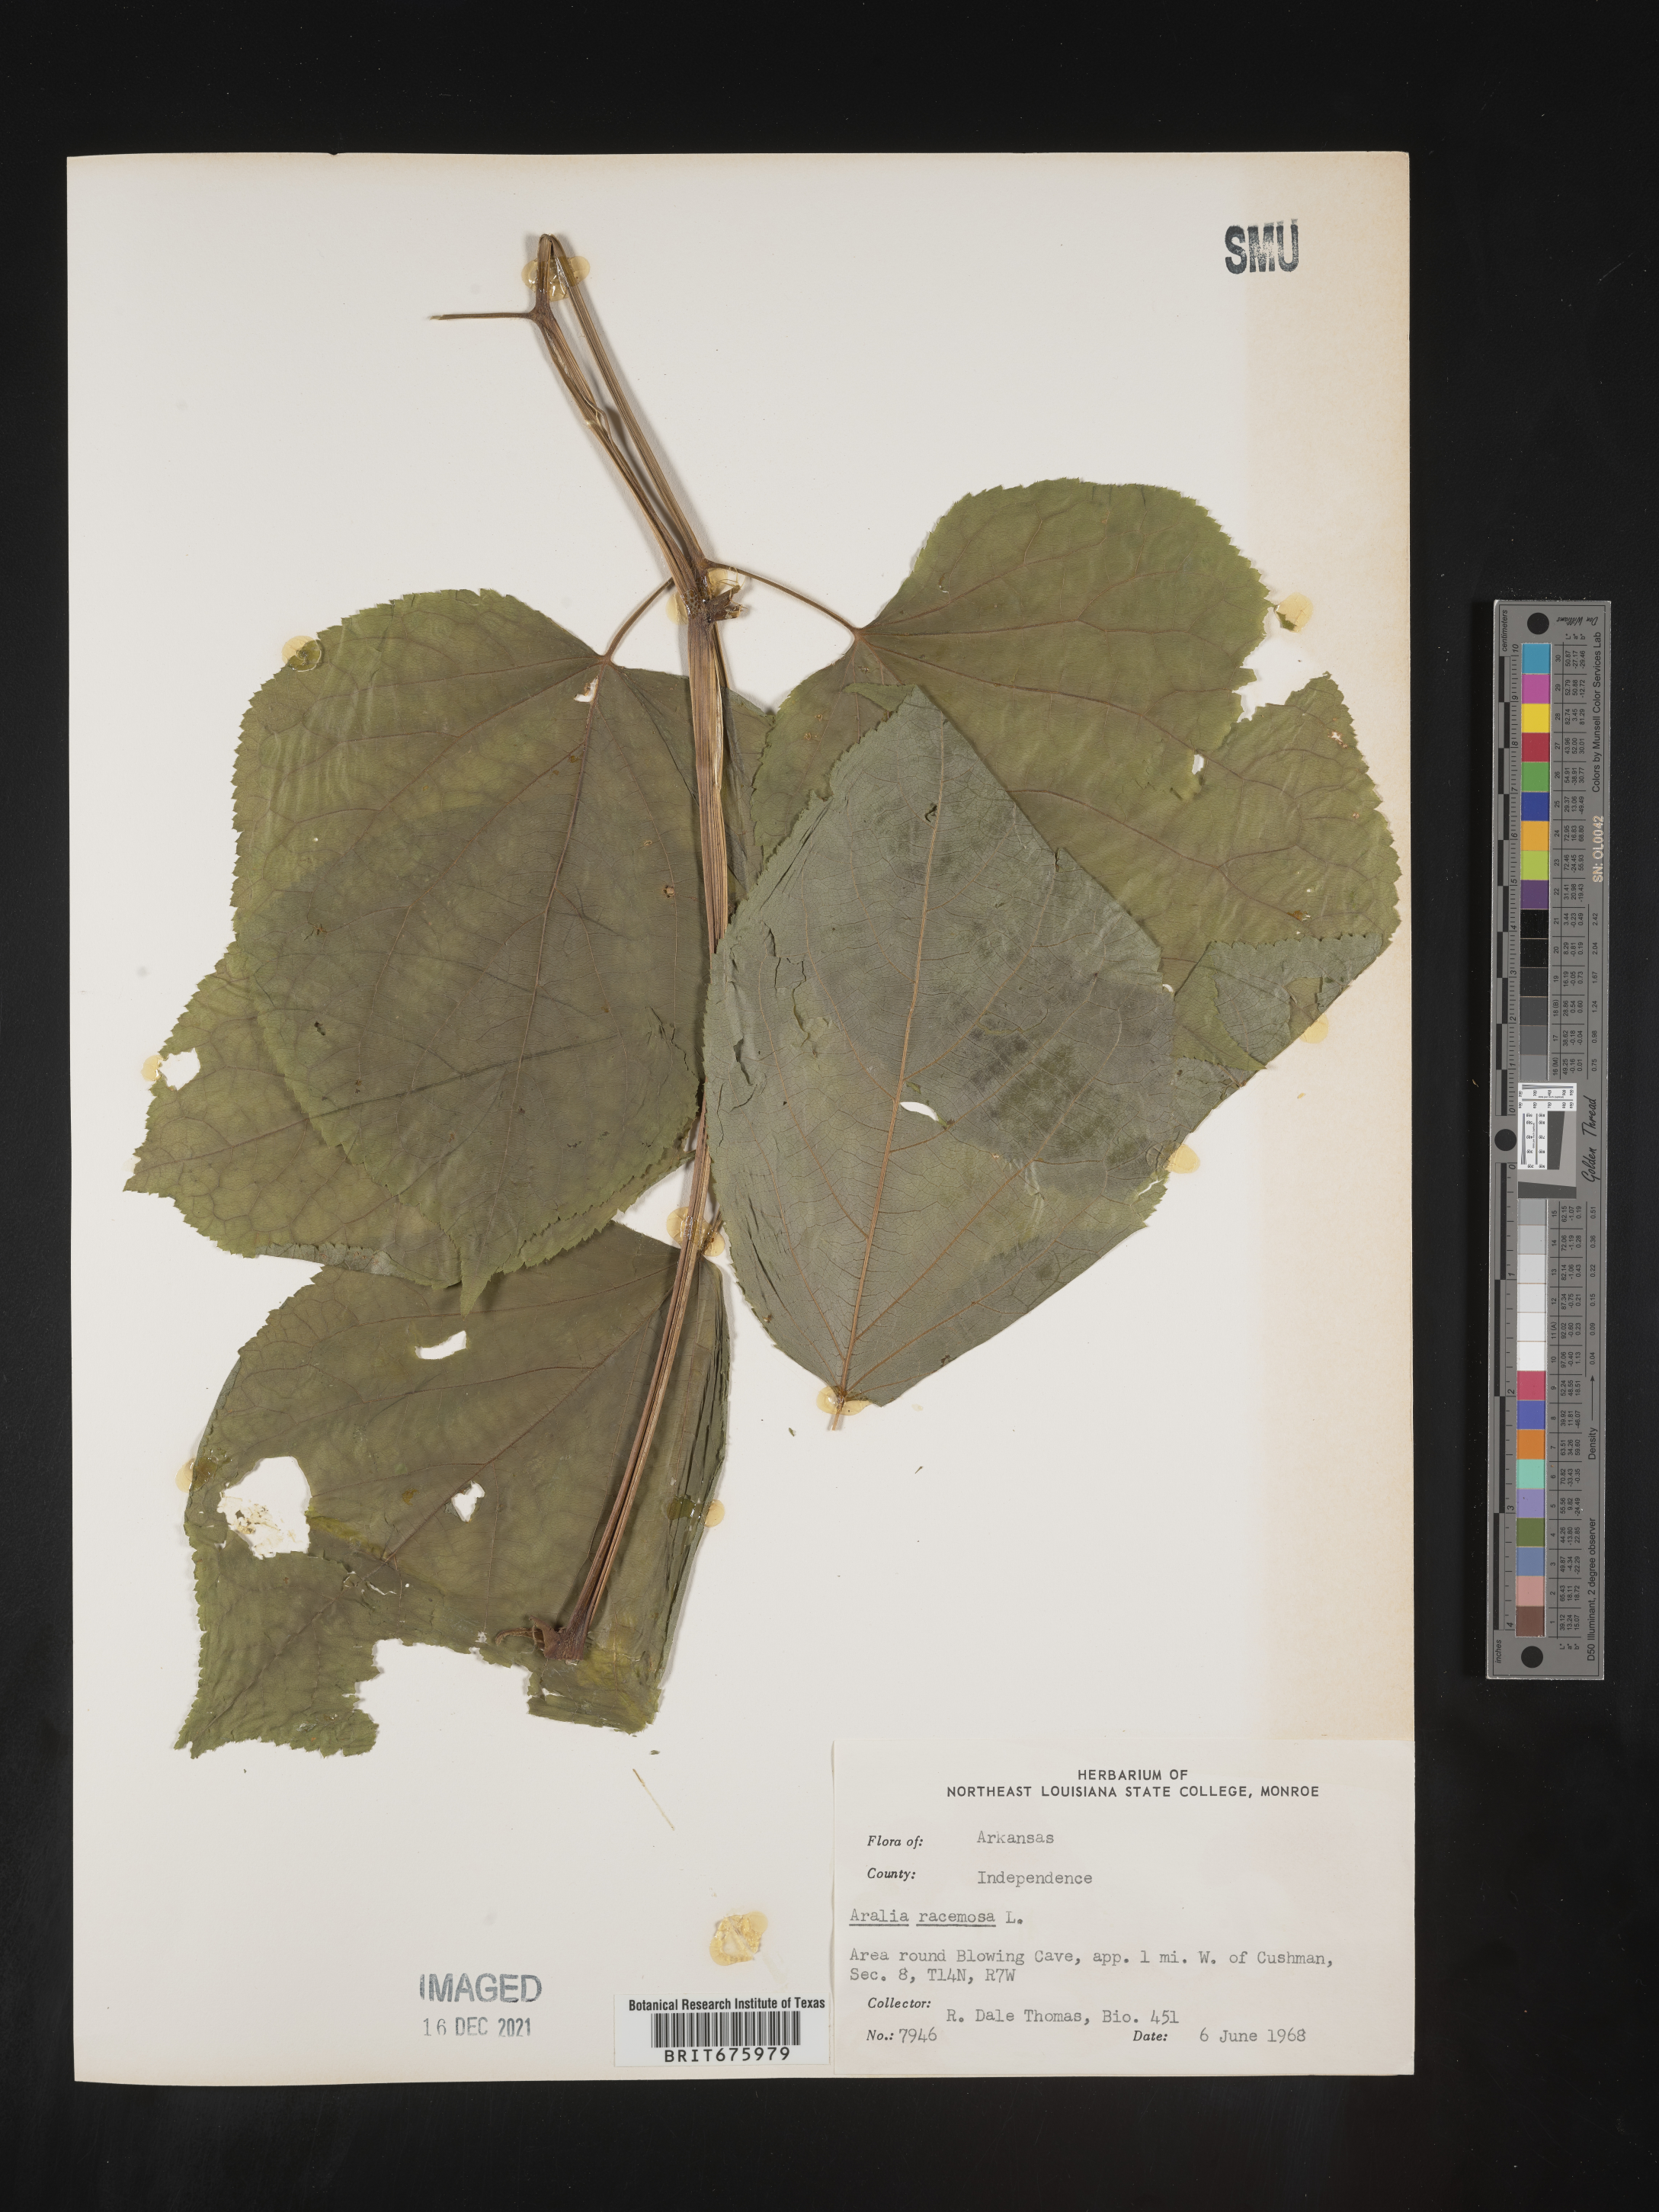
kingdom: Plantae
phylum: Tracheophyta
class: Magnoliopsida
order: Apiales
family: Araliaceae
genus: Aralia
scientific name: Aralia racemosa
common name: American-spikenard
